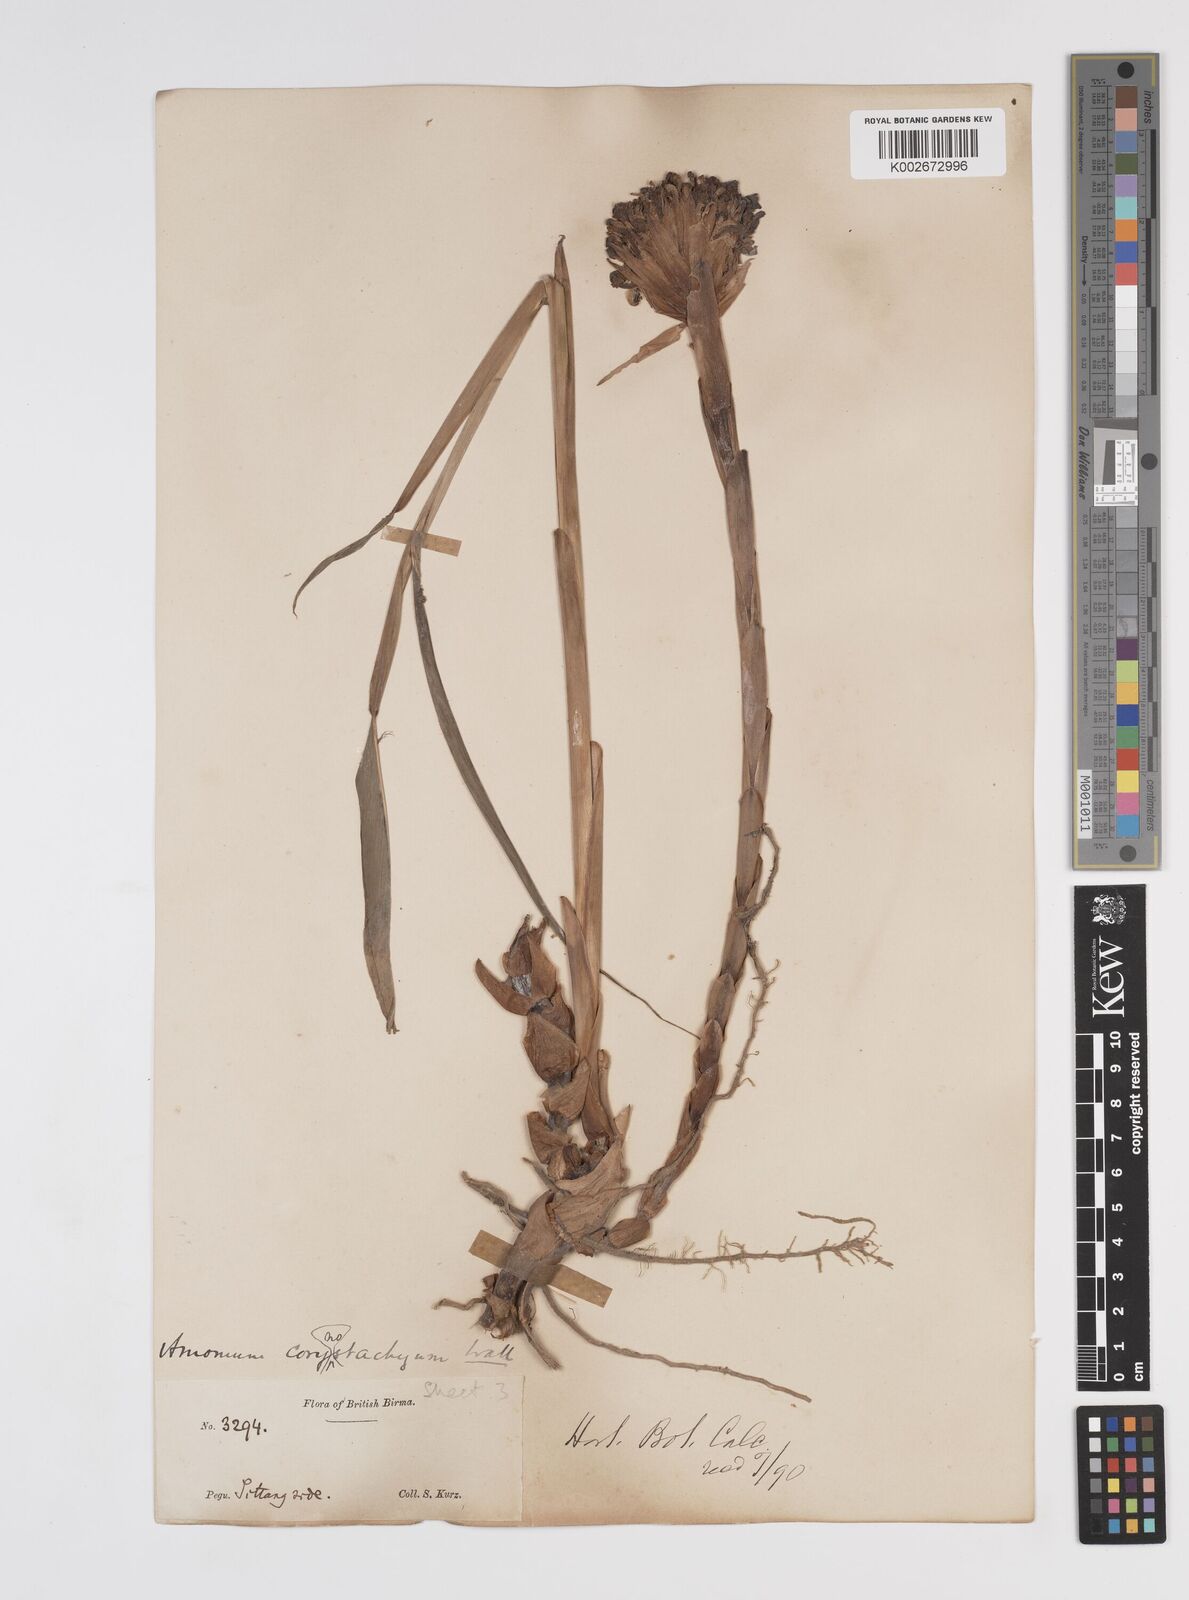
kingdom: Plantae
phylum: Tracheophyta
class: Liliopsida
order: Zingiberales
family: Zingiberaceae
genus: Meistera
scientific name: Meistera koenigii
